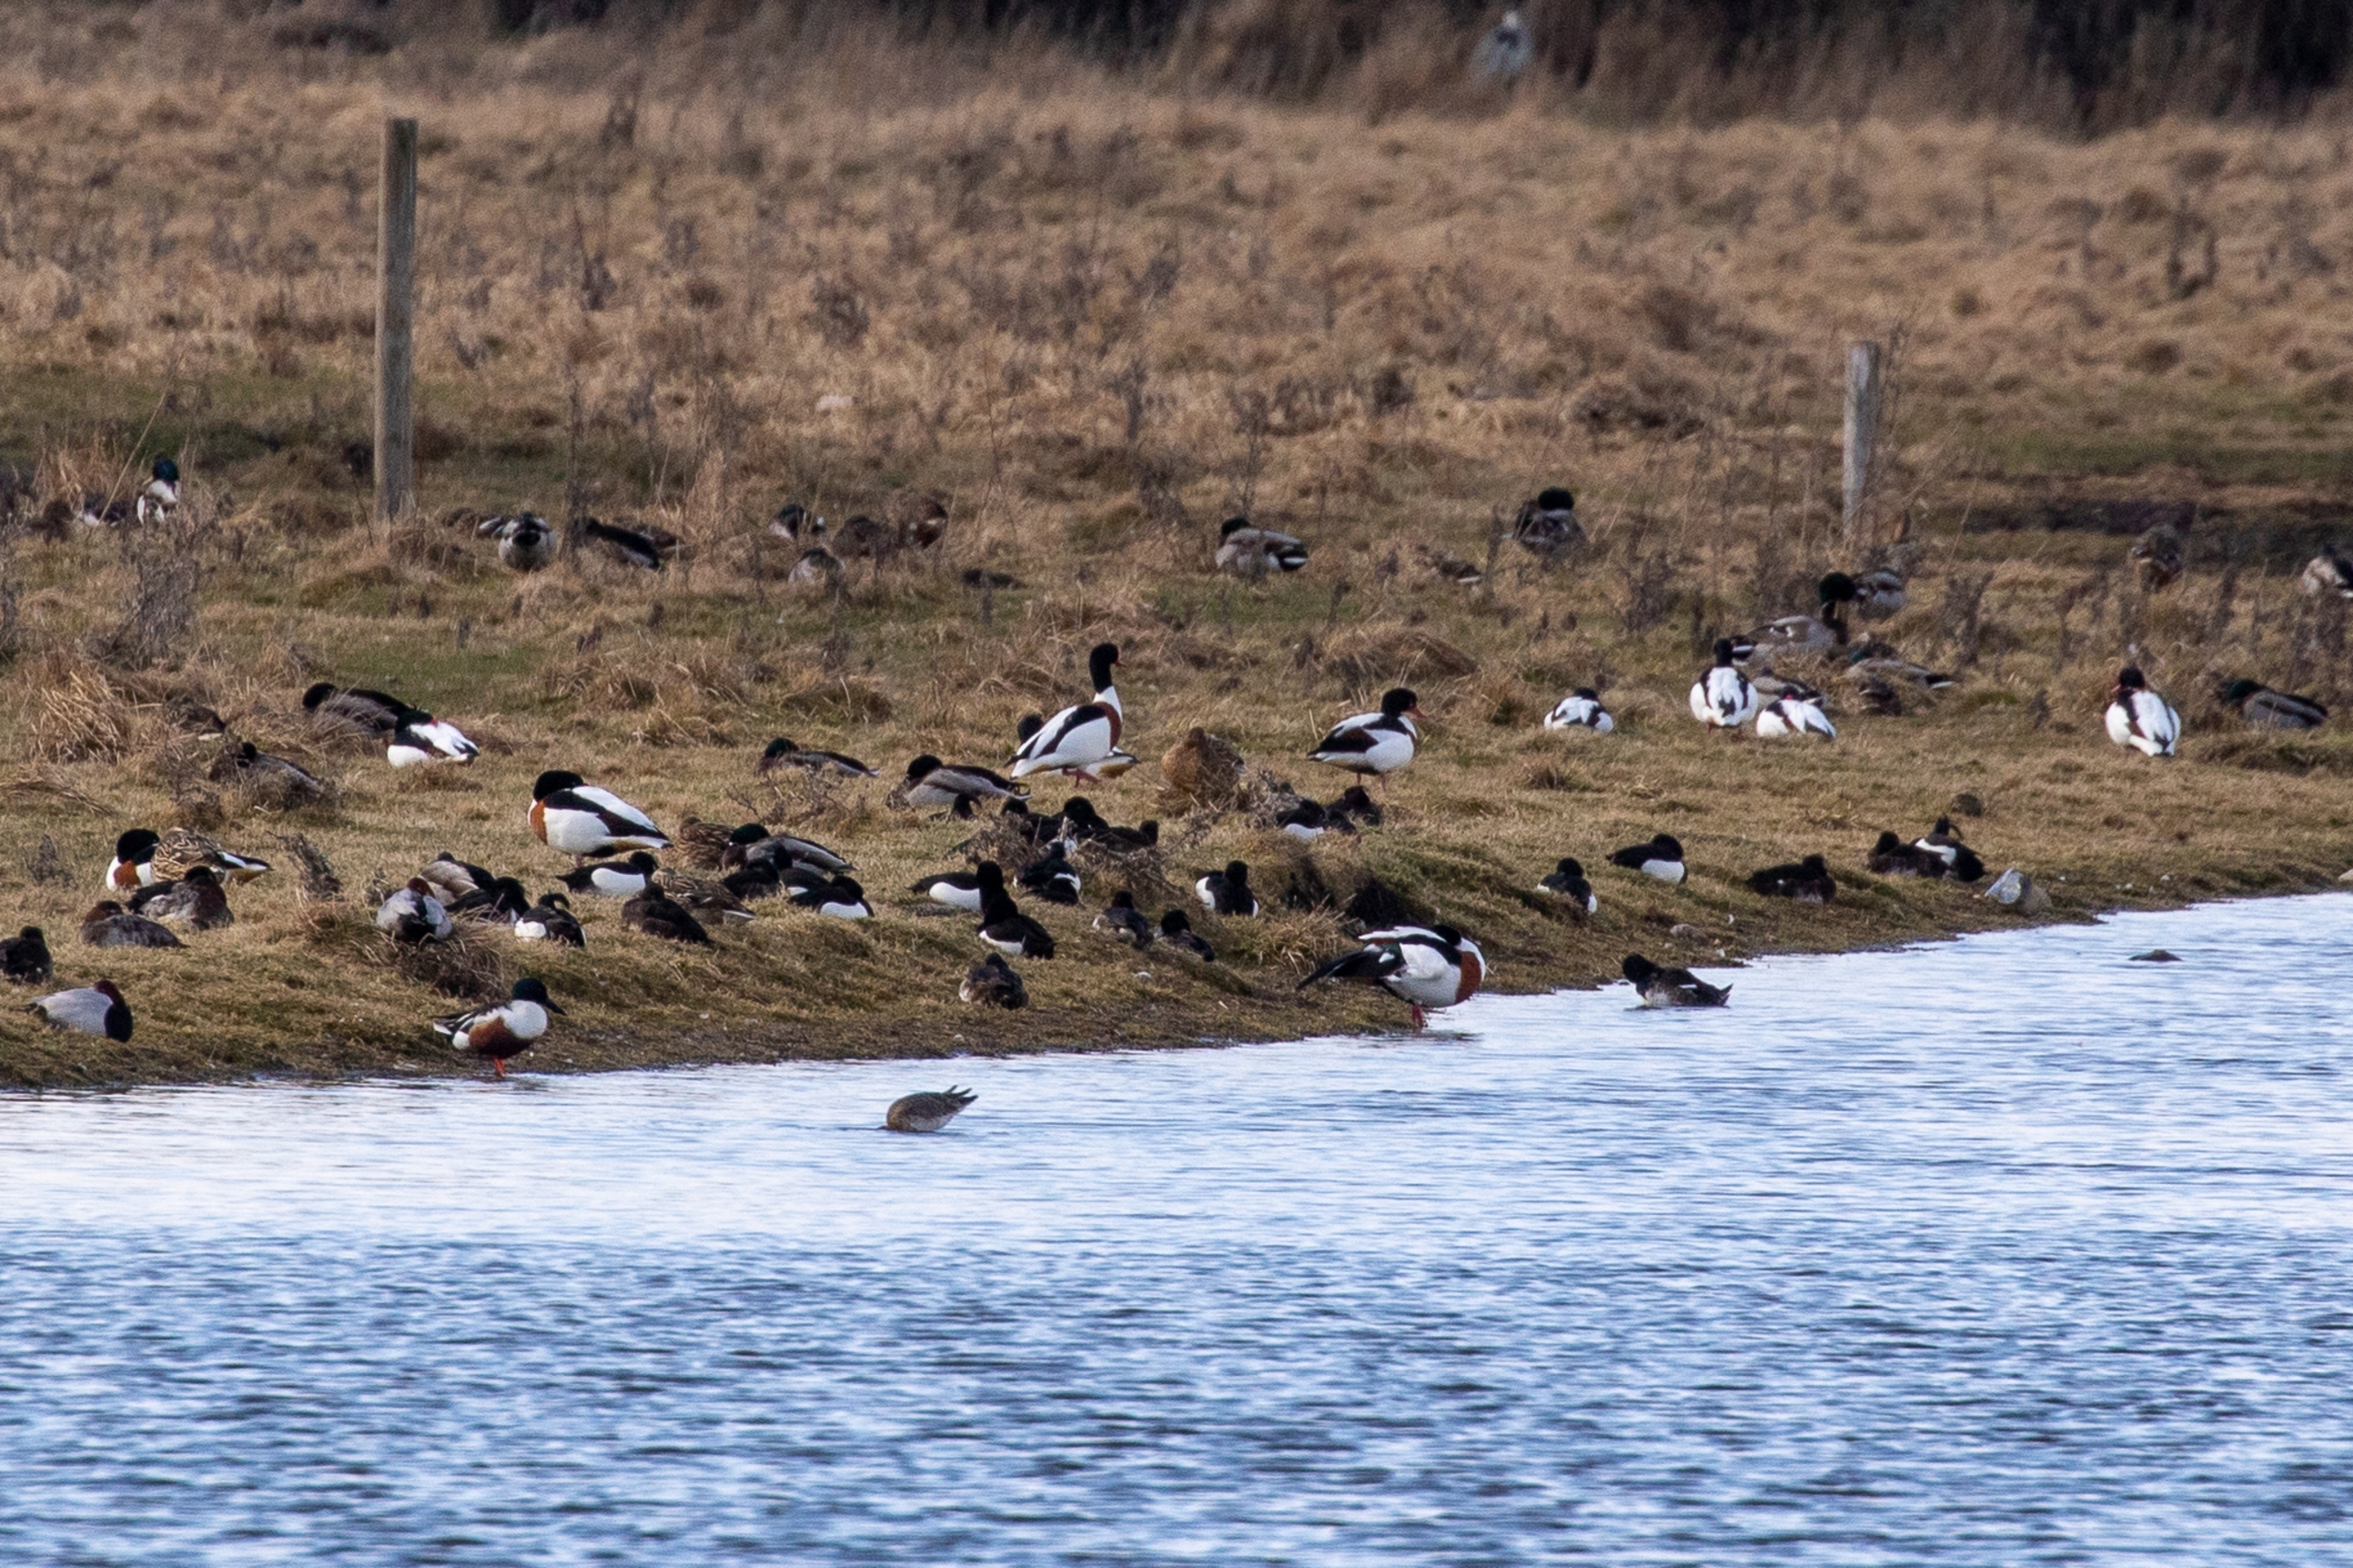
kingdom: Animalia
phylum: Chordata
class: Aves
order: Anseriformes
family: Anatidae
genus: Tadorna
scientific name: Tadorna tadorna
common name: Gravand
